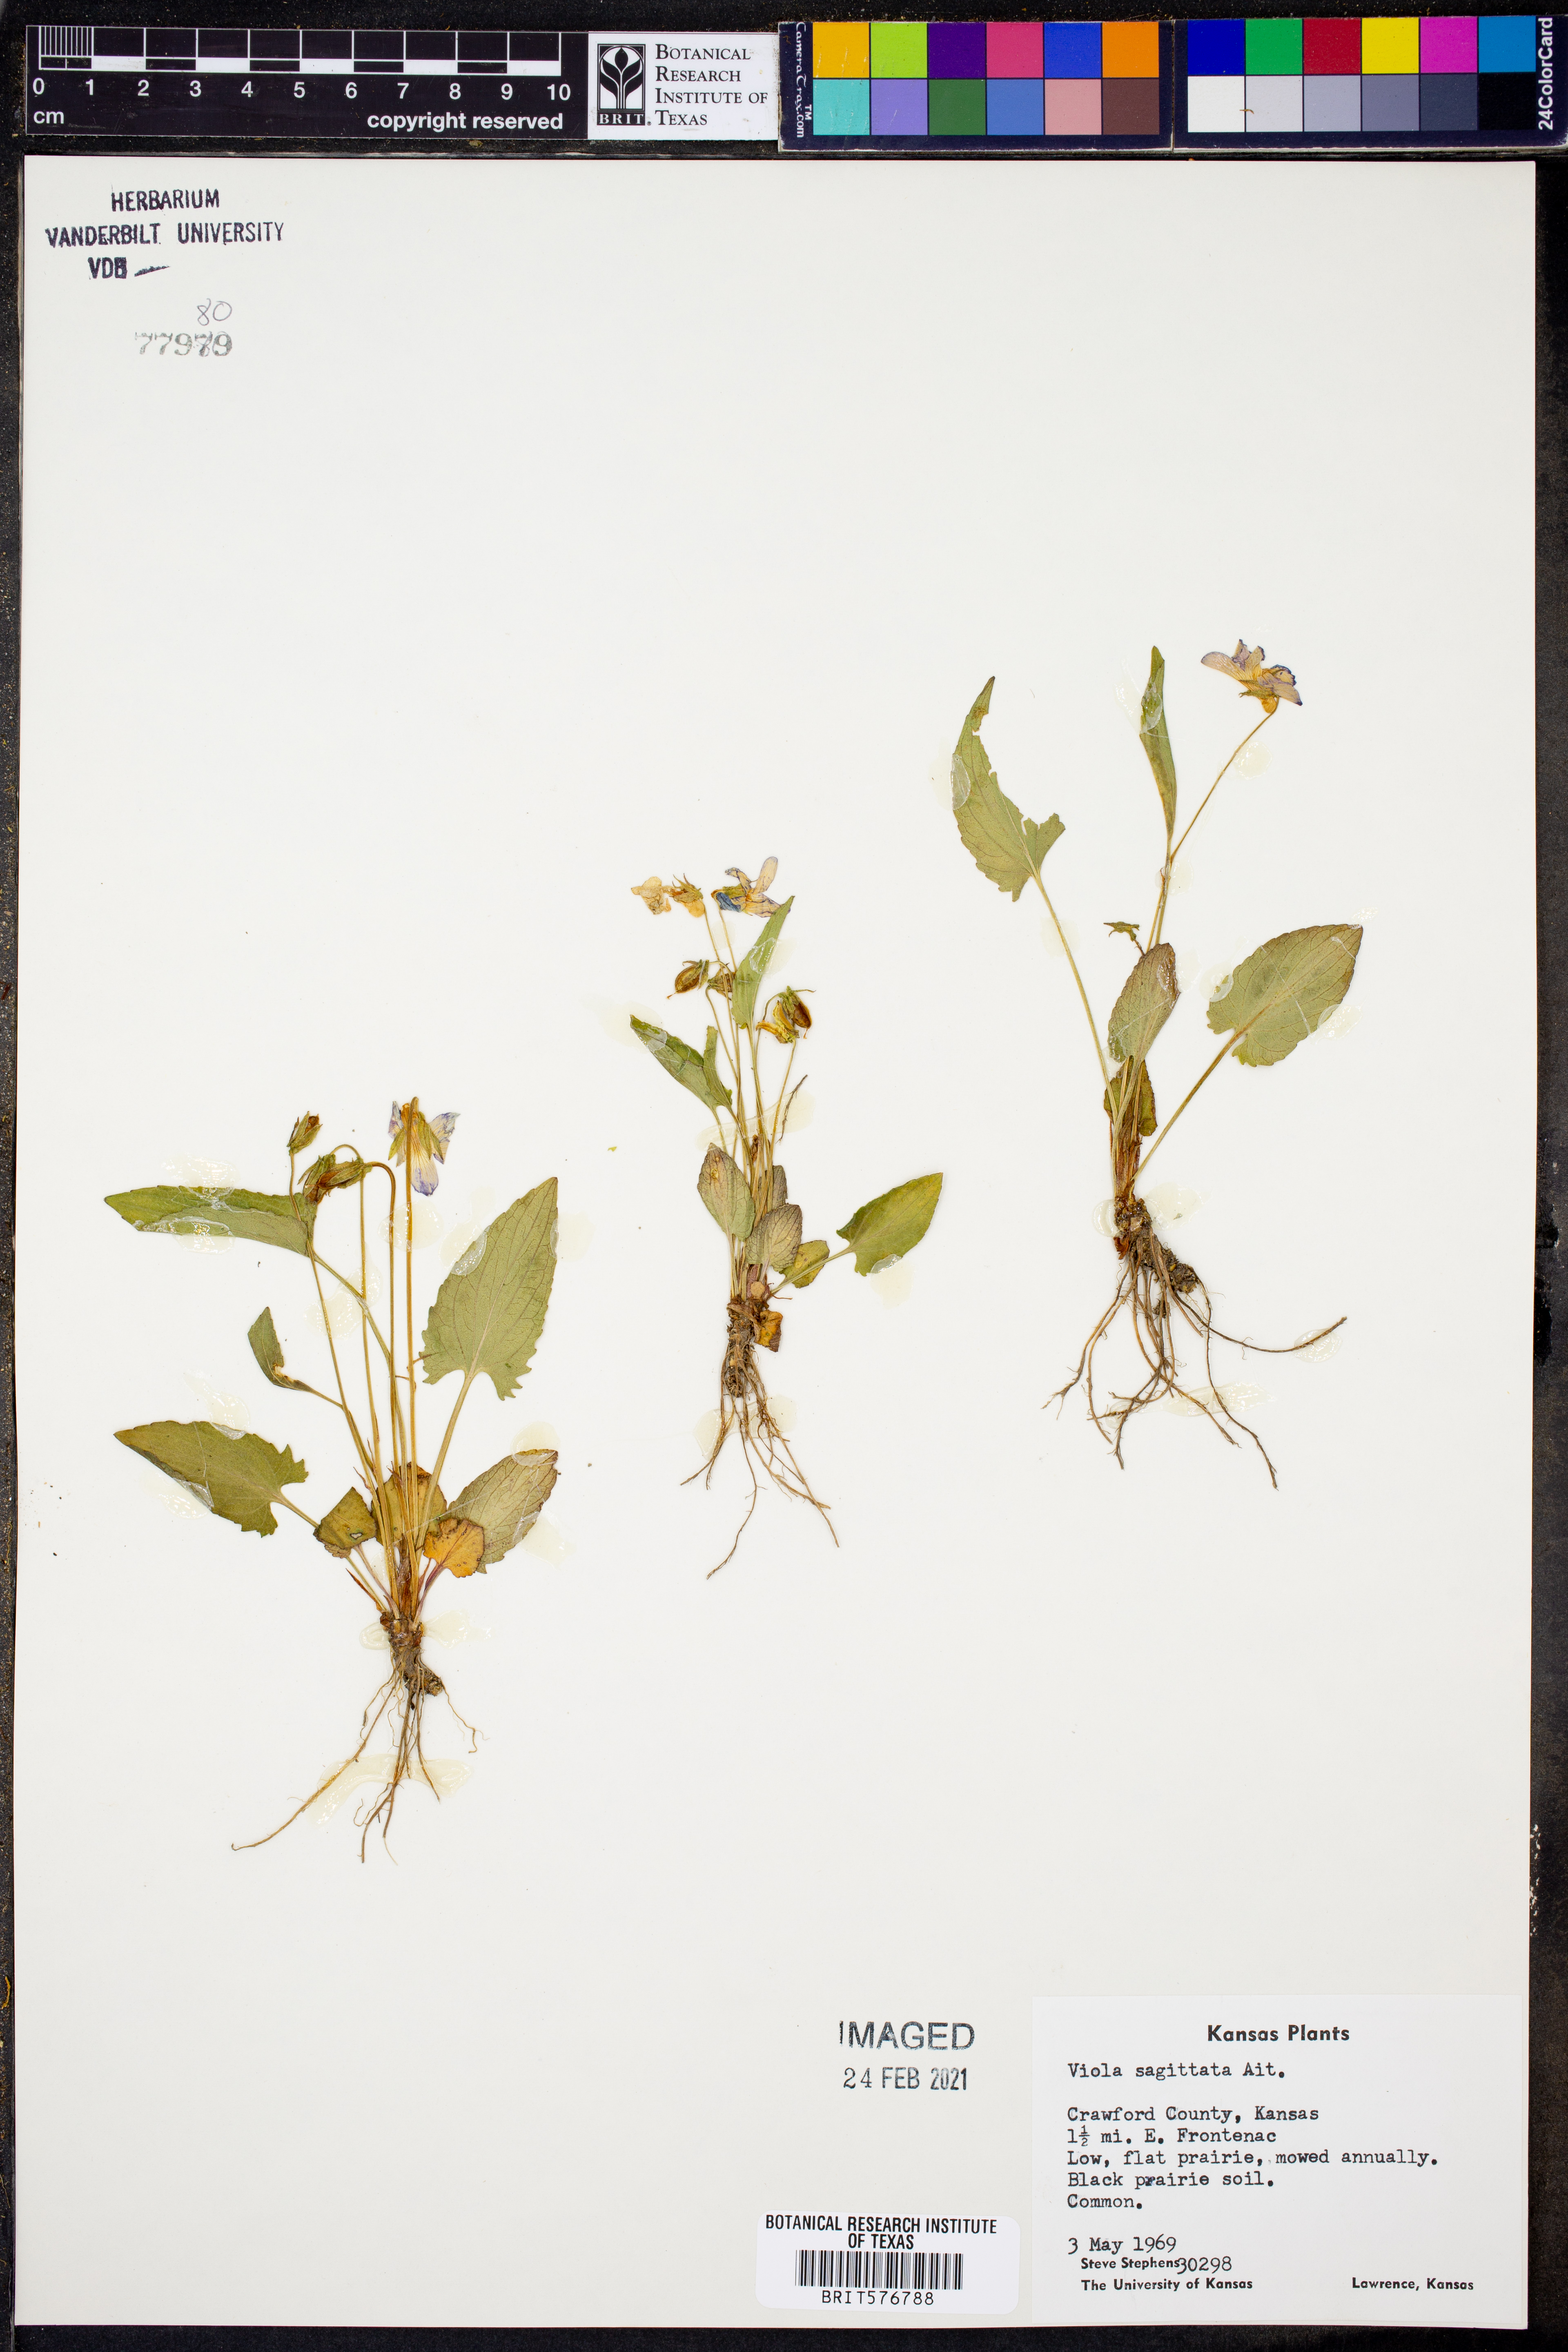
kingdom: Plantae
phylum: Tracheophyta
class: Magnoliopsida
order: Malpighiales
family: Violaceae
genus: Viola
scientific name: Viola sagittata
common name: Arrowhead violet
